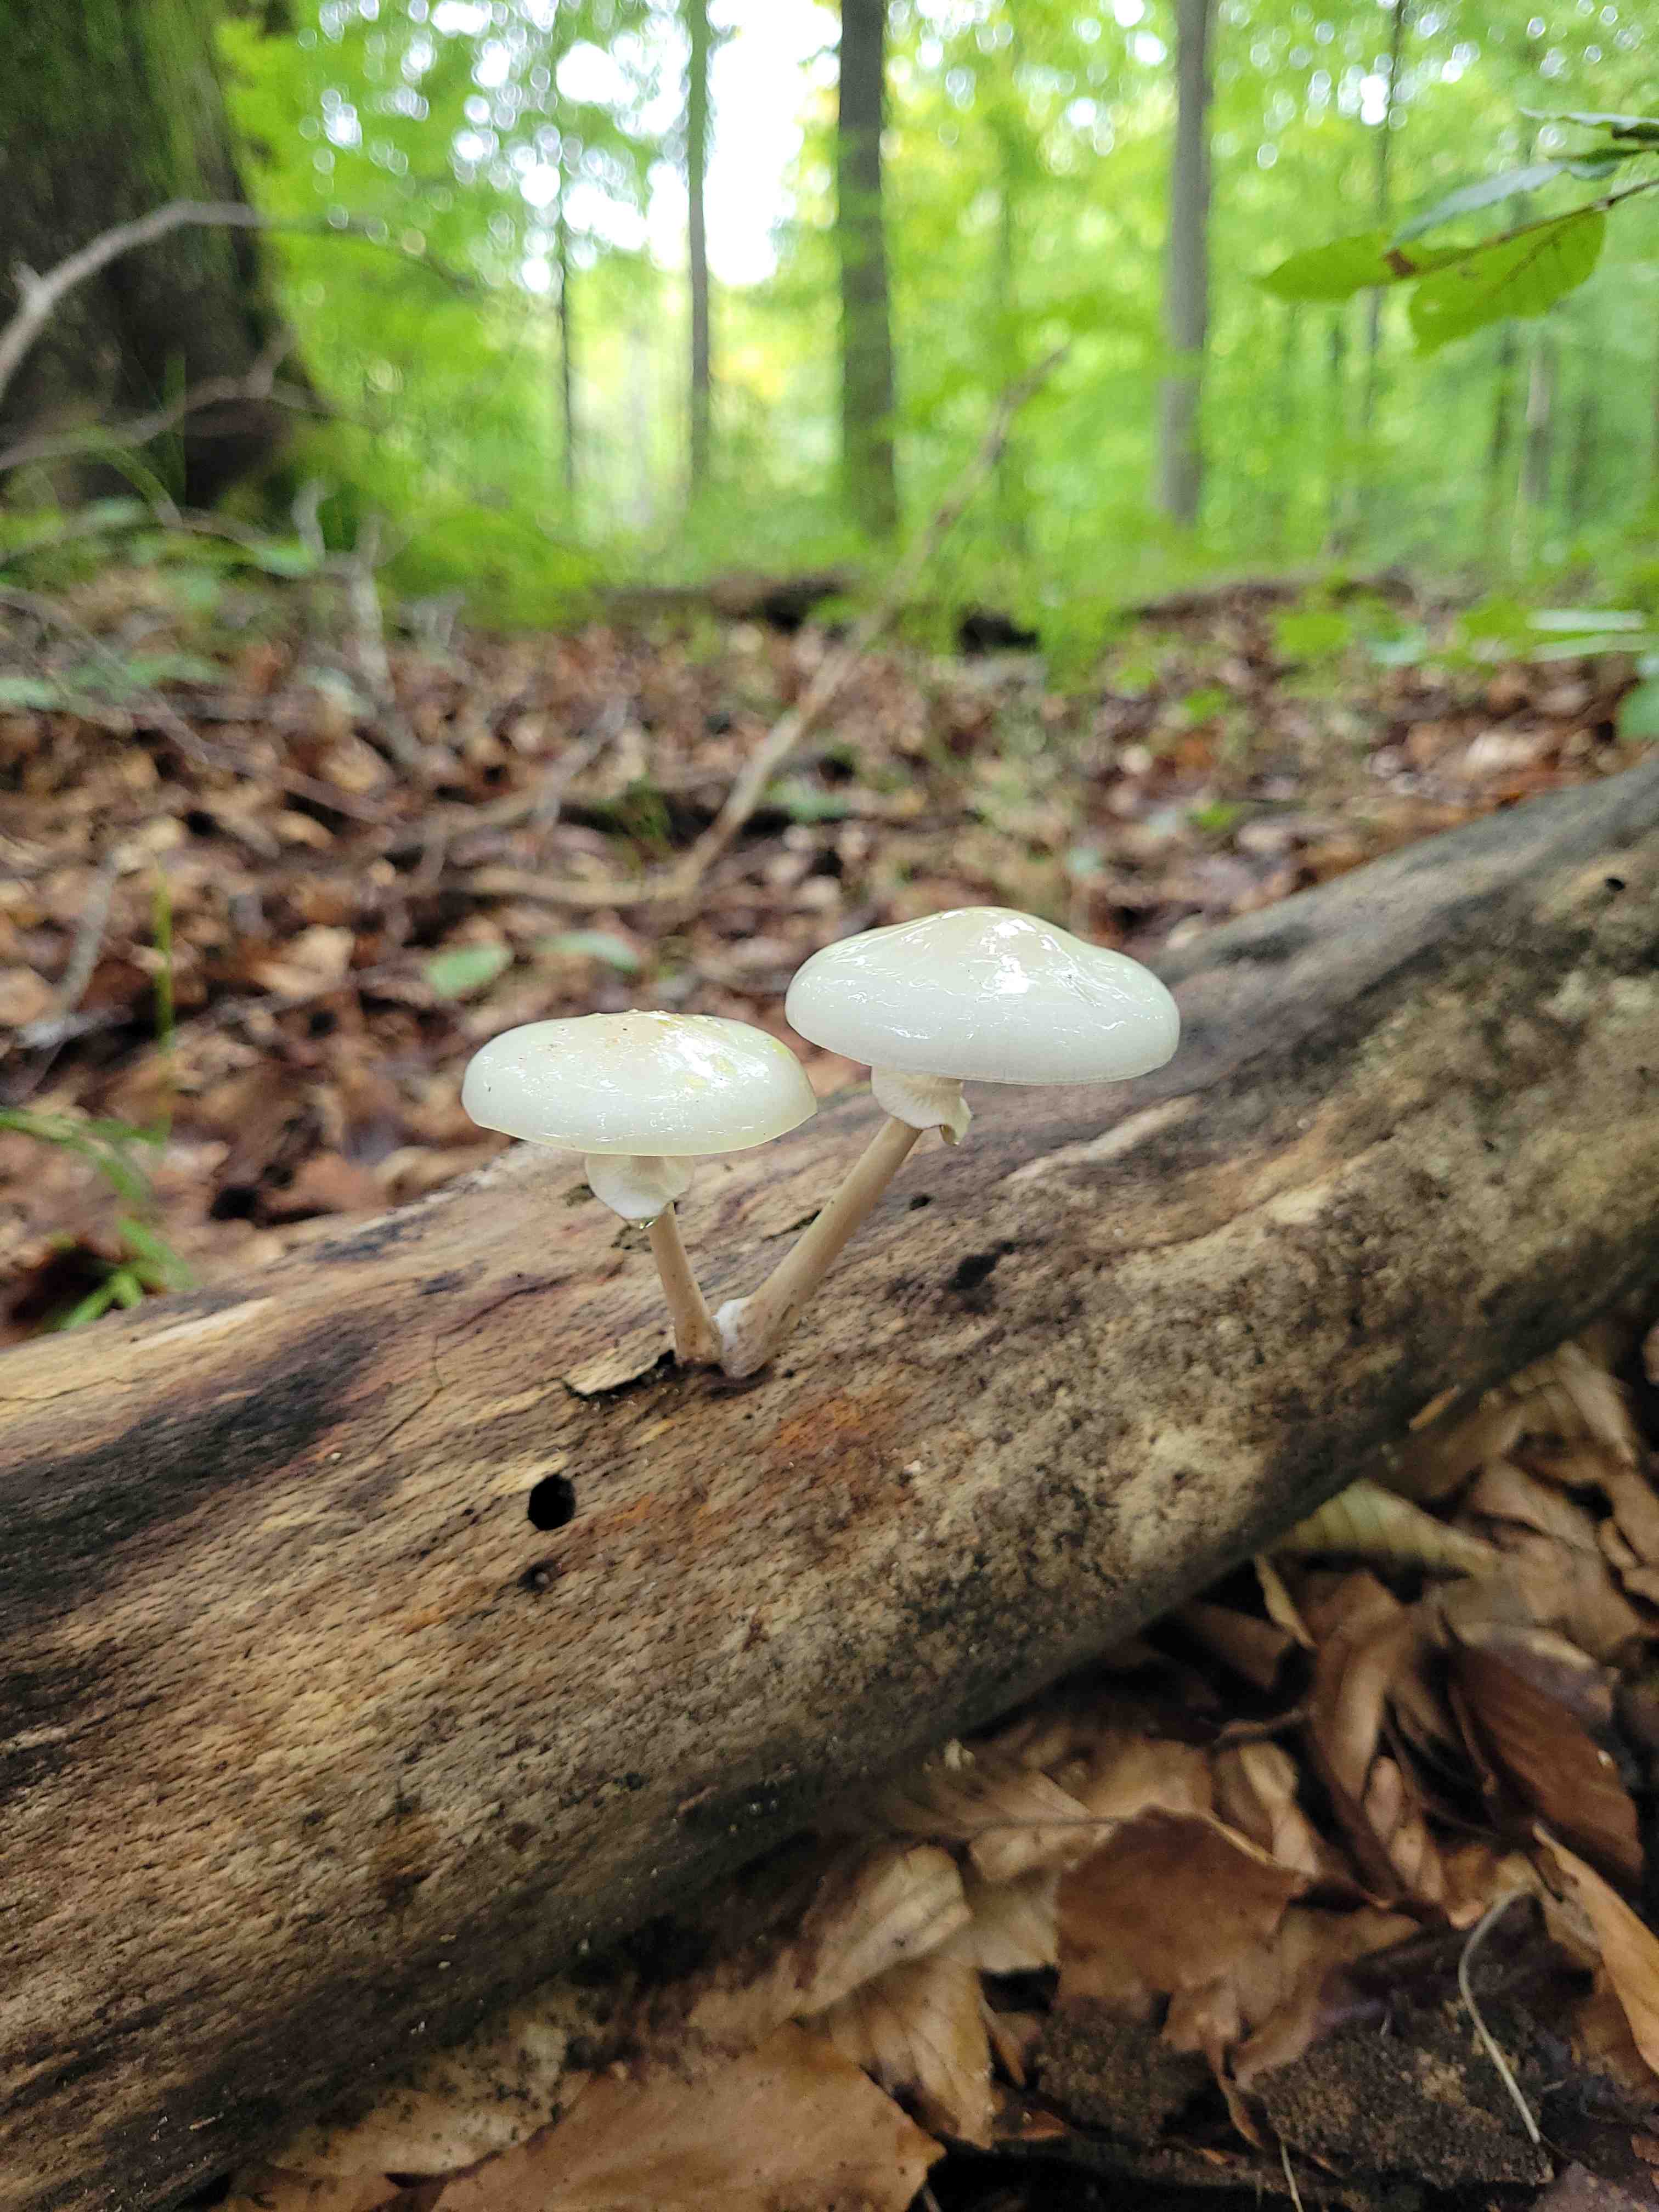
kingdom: Fungi
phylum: Basidiomycota
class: Agaricomycetes
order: Agaricales
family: Physalacriaceae
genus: Mucidula
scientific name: Mucidula mucida
